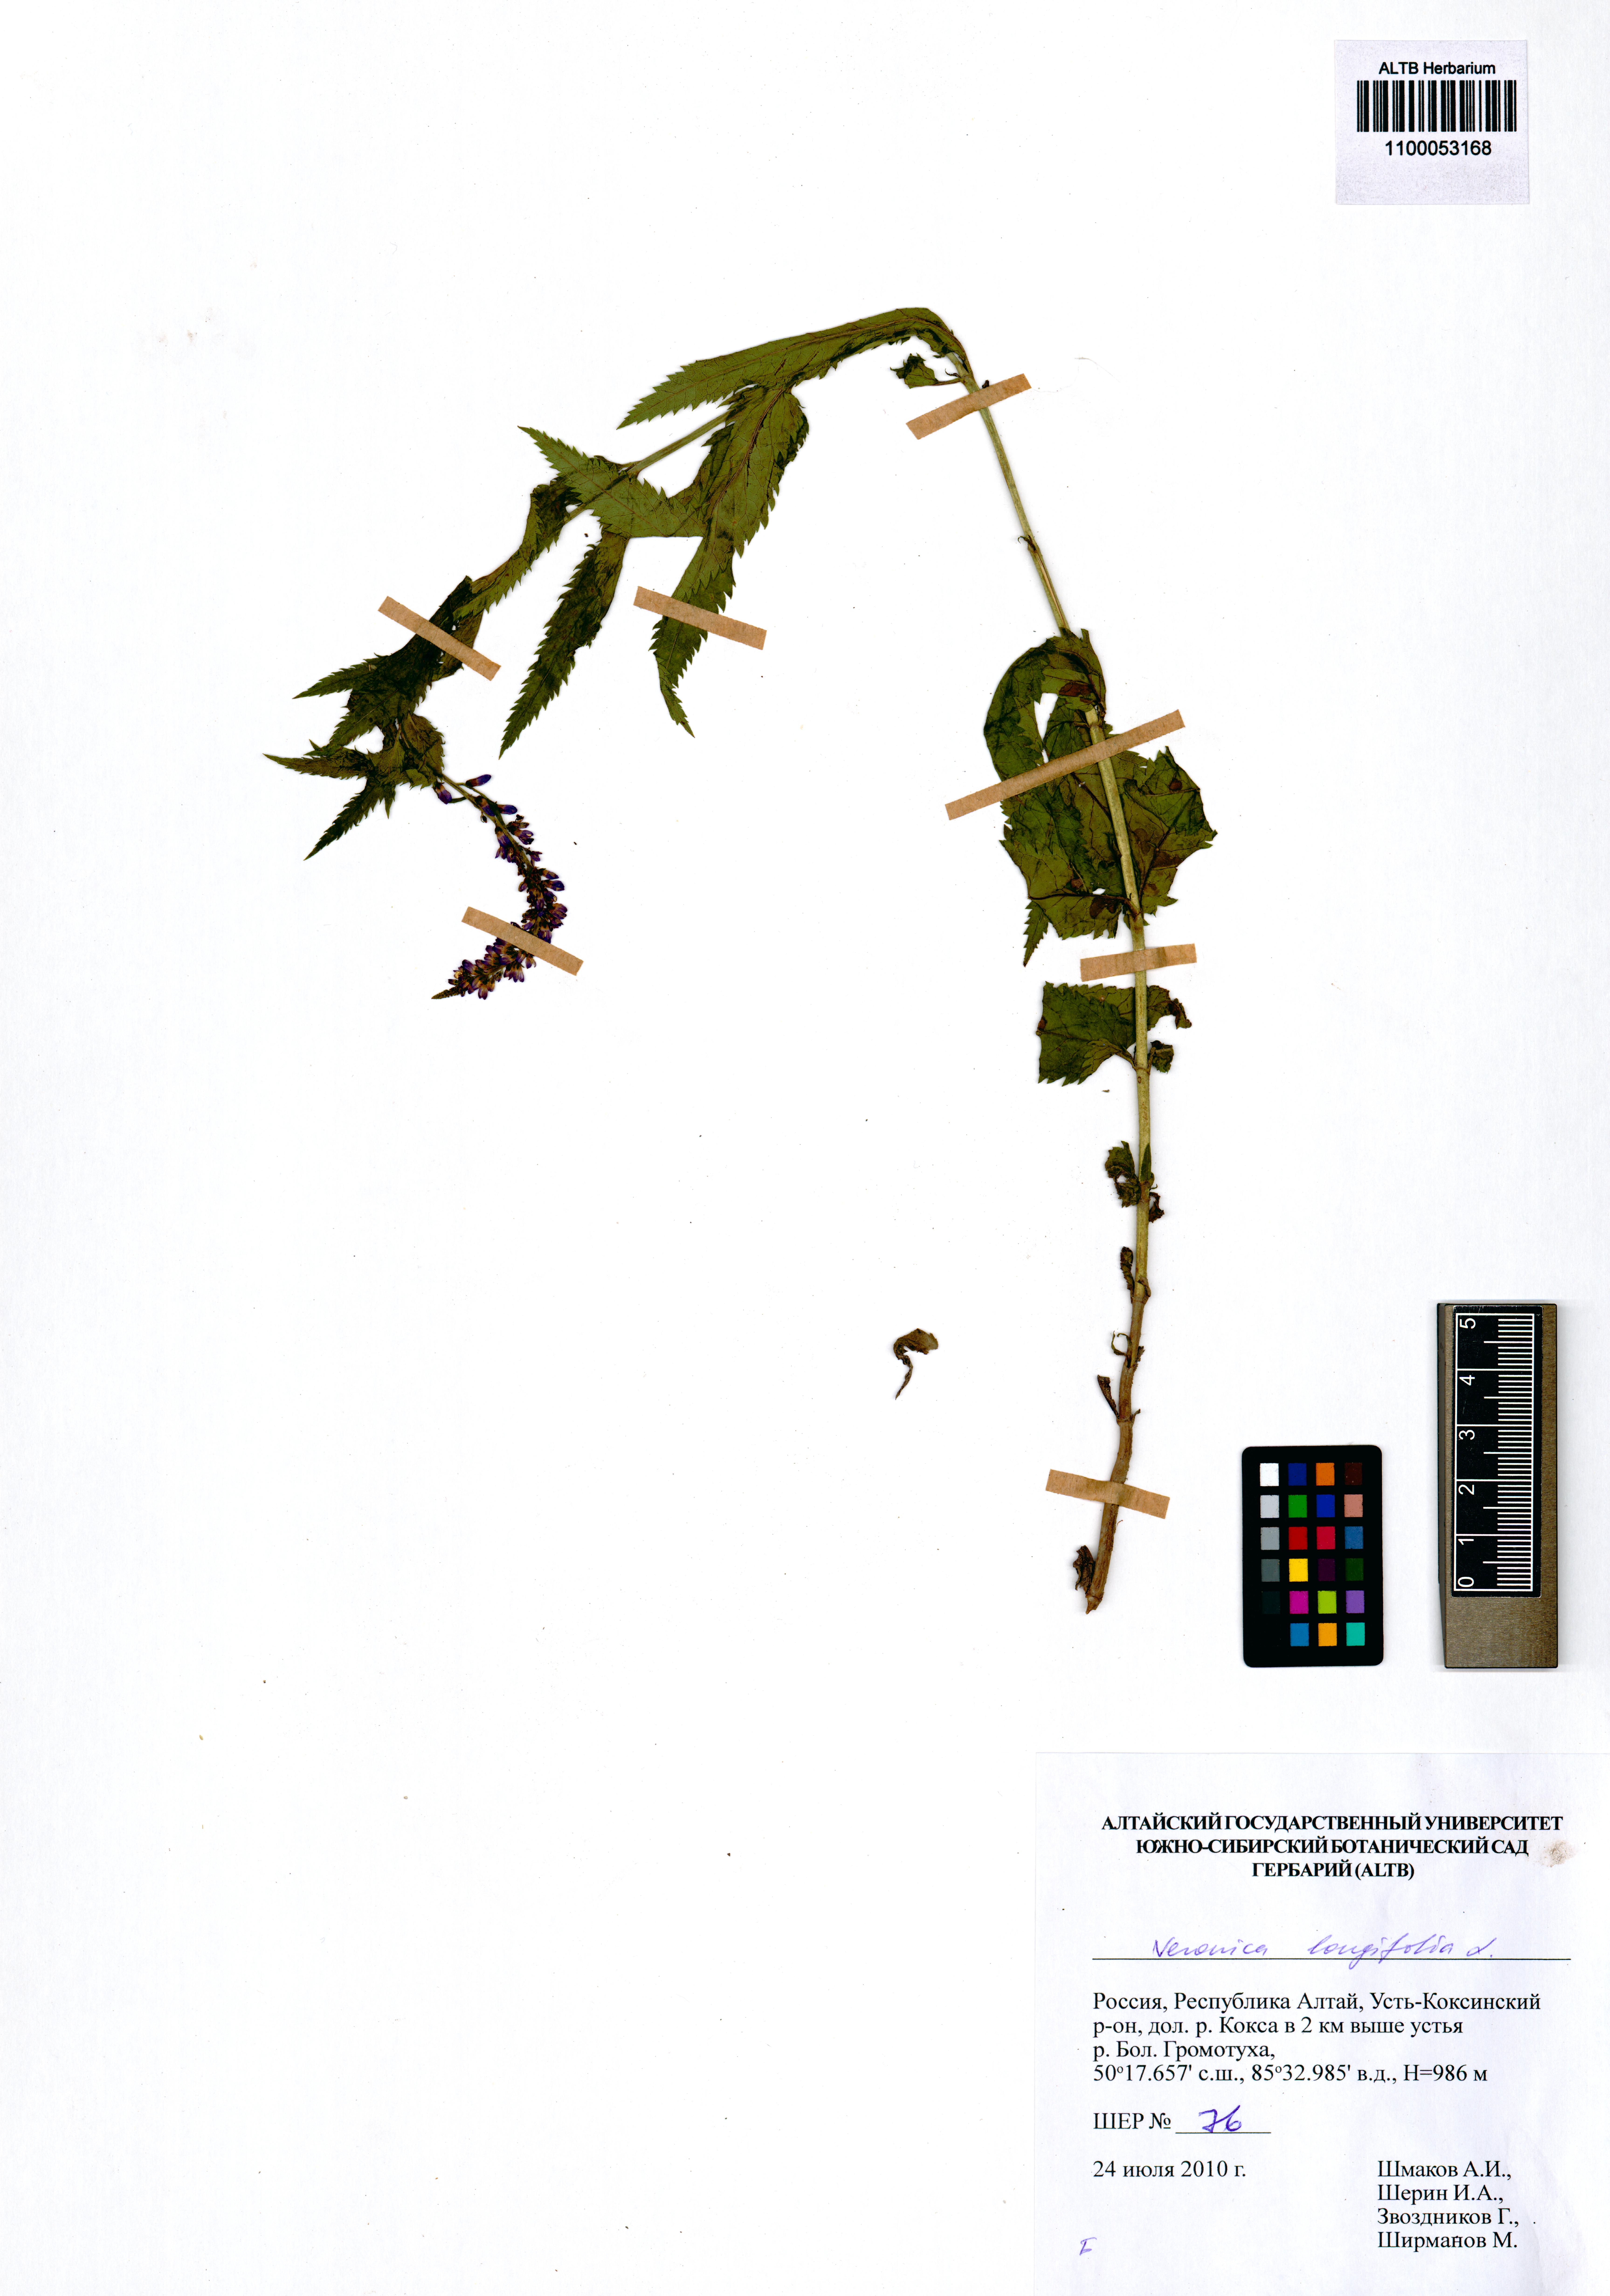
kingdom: Plantae
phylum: Tracheophyta
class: Magnoliopsida
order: Lamiales
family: Plantaginaceae
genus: Veronica
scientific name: Veronica longifolia
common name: Garden speedwell
